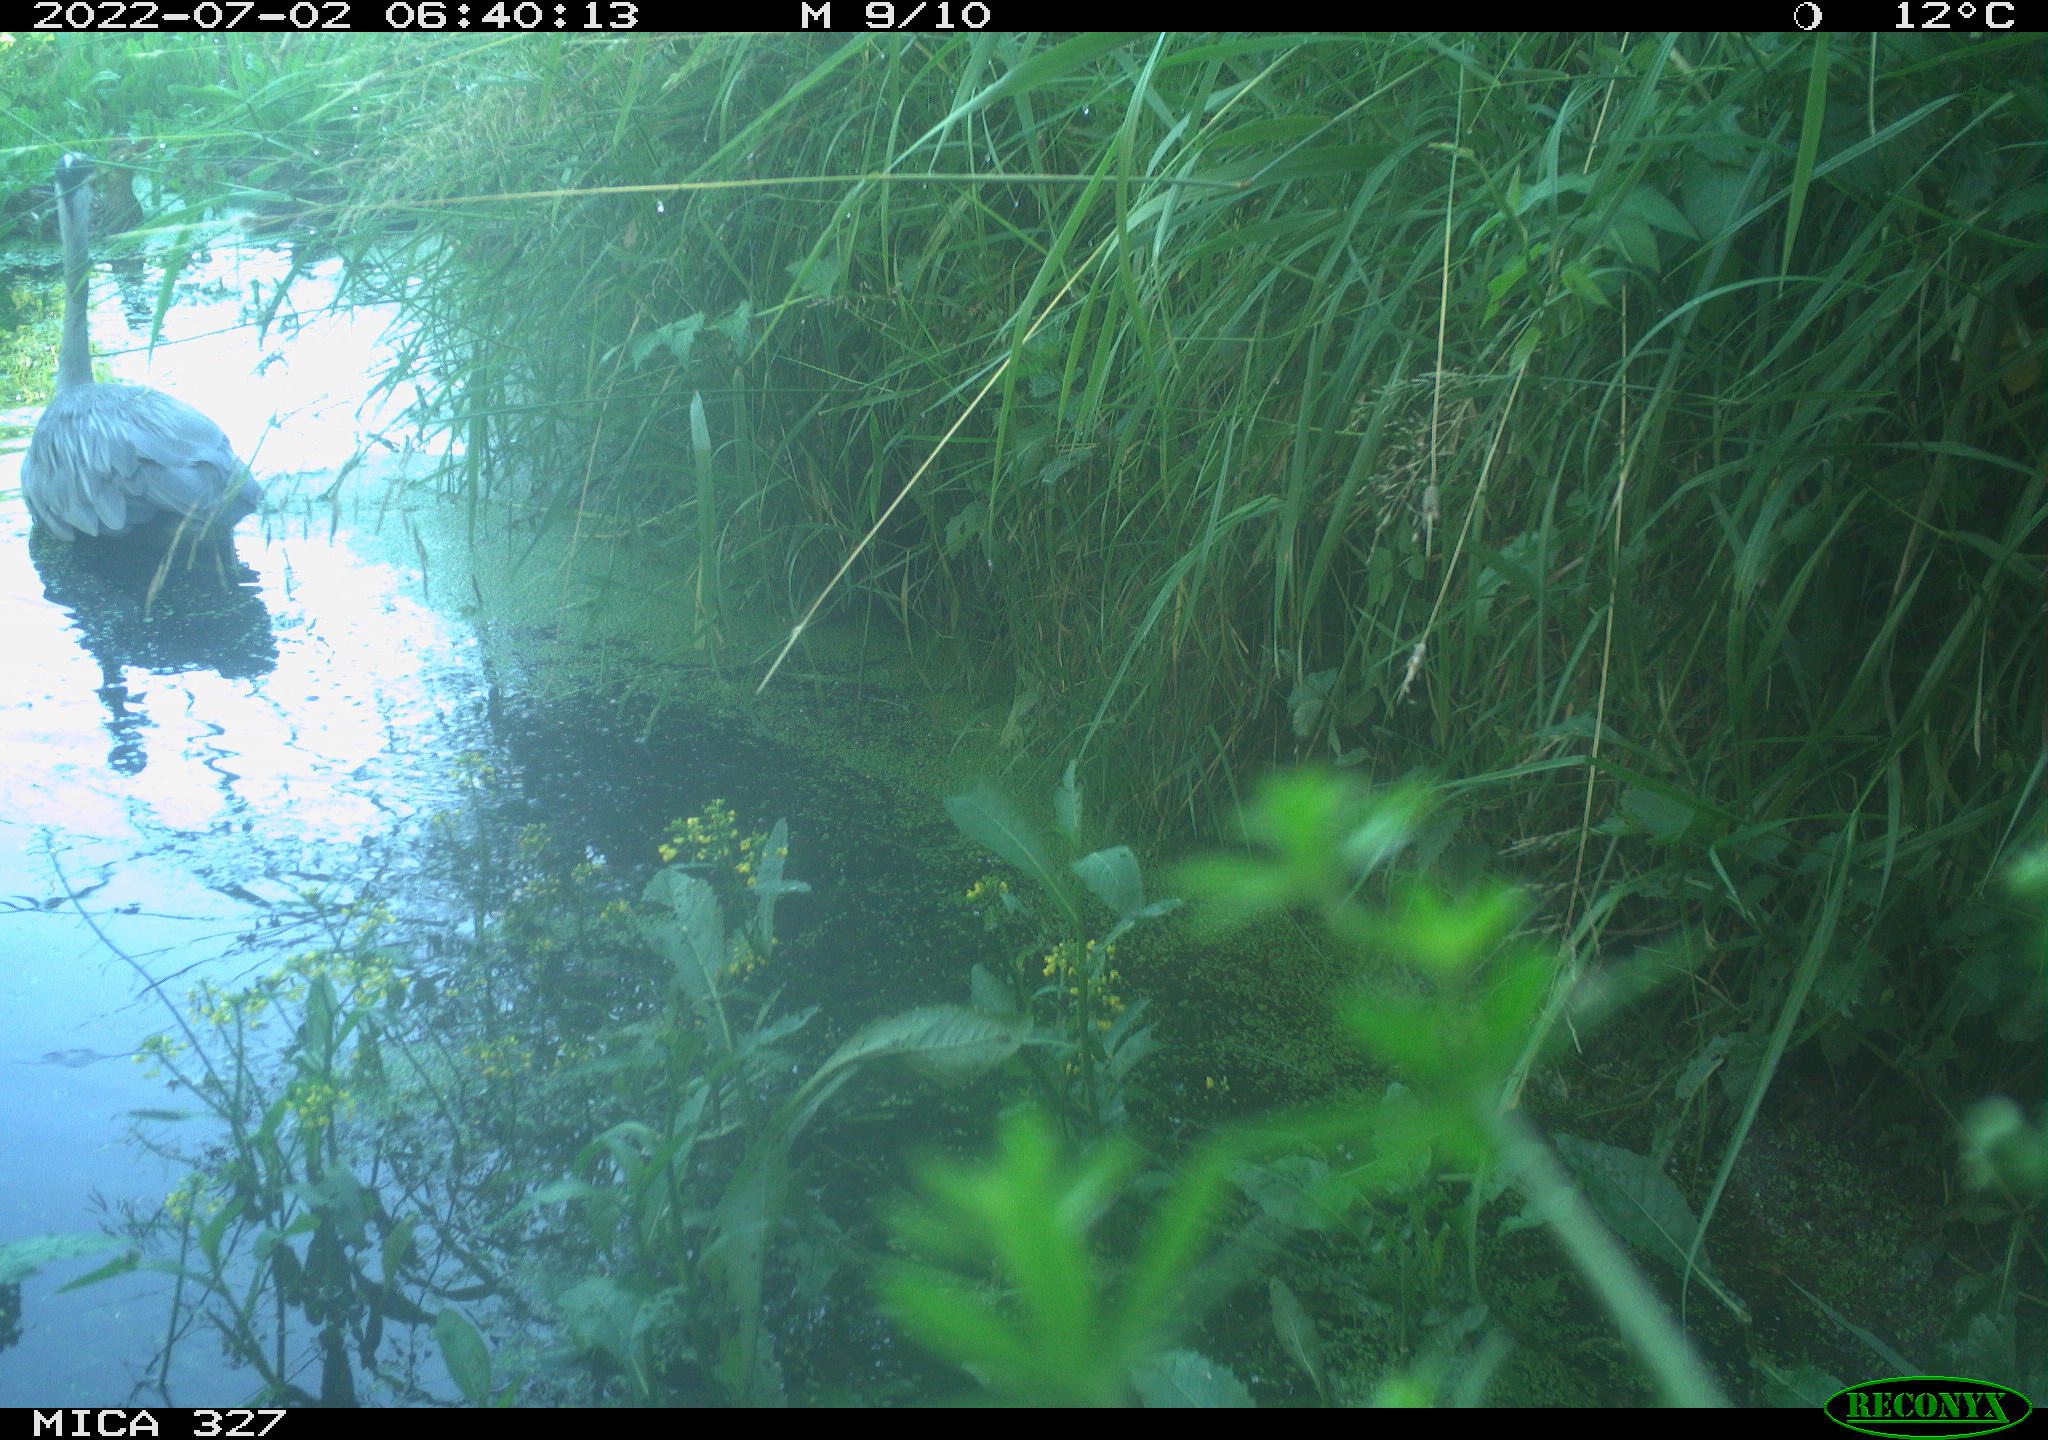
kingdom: Animalia
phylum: Chordata
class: Aves
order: Anseriformes
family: Anatidae
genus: Anas
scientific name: Anas
